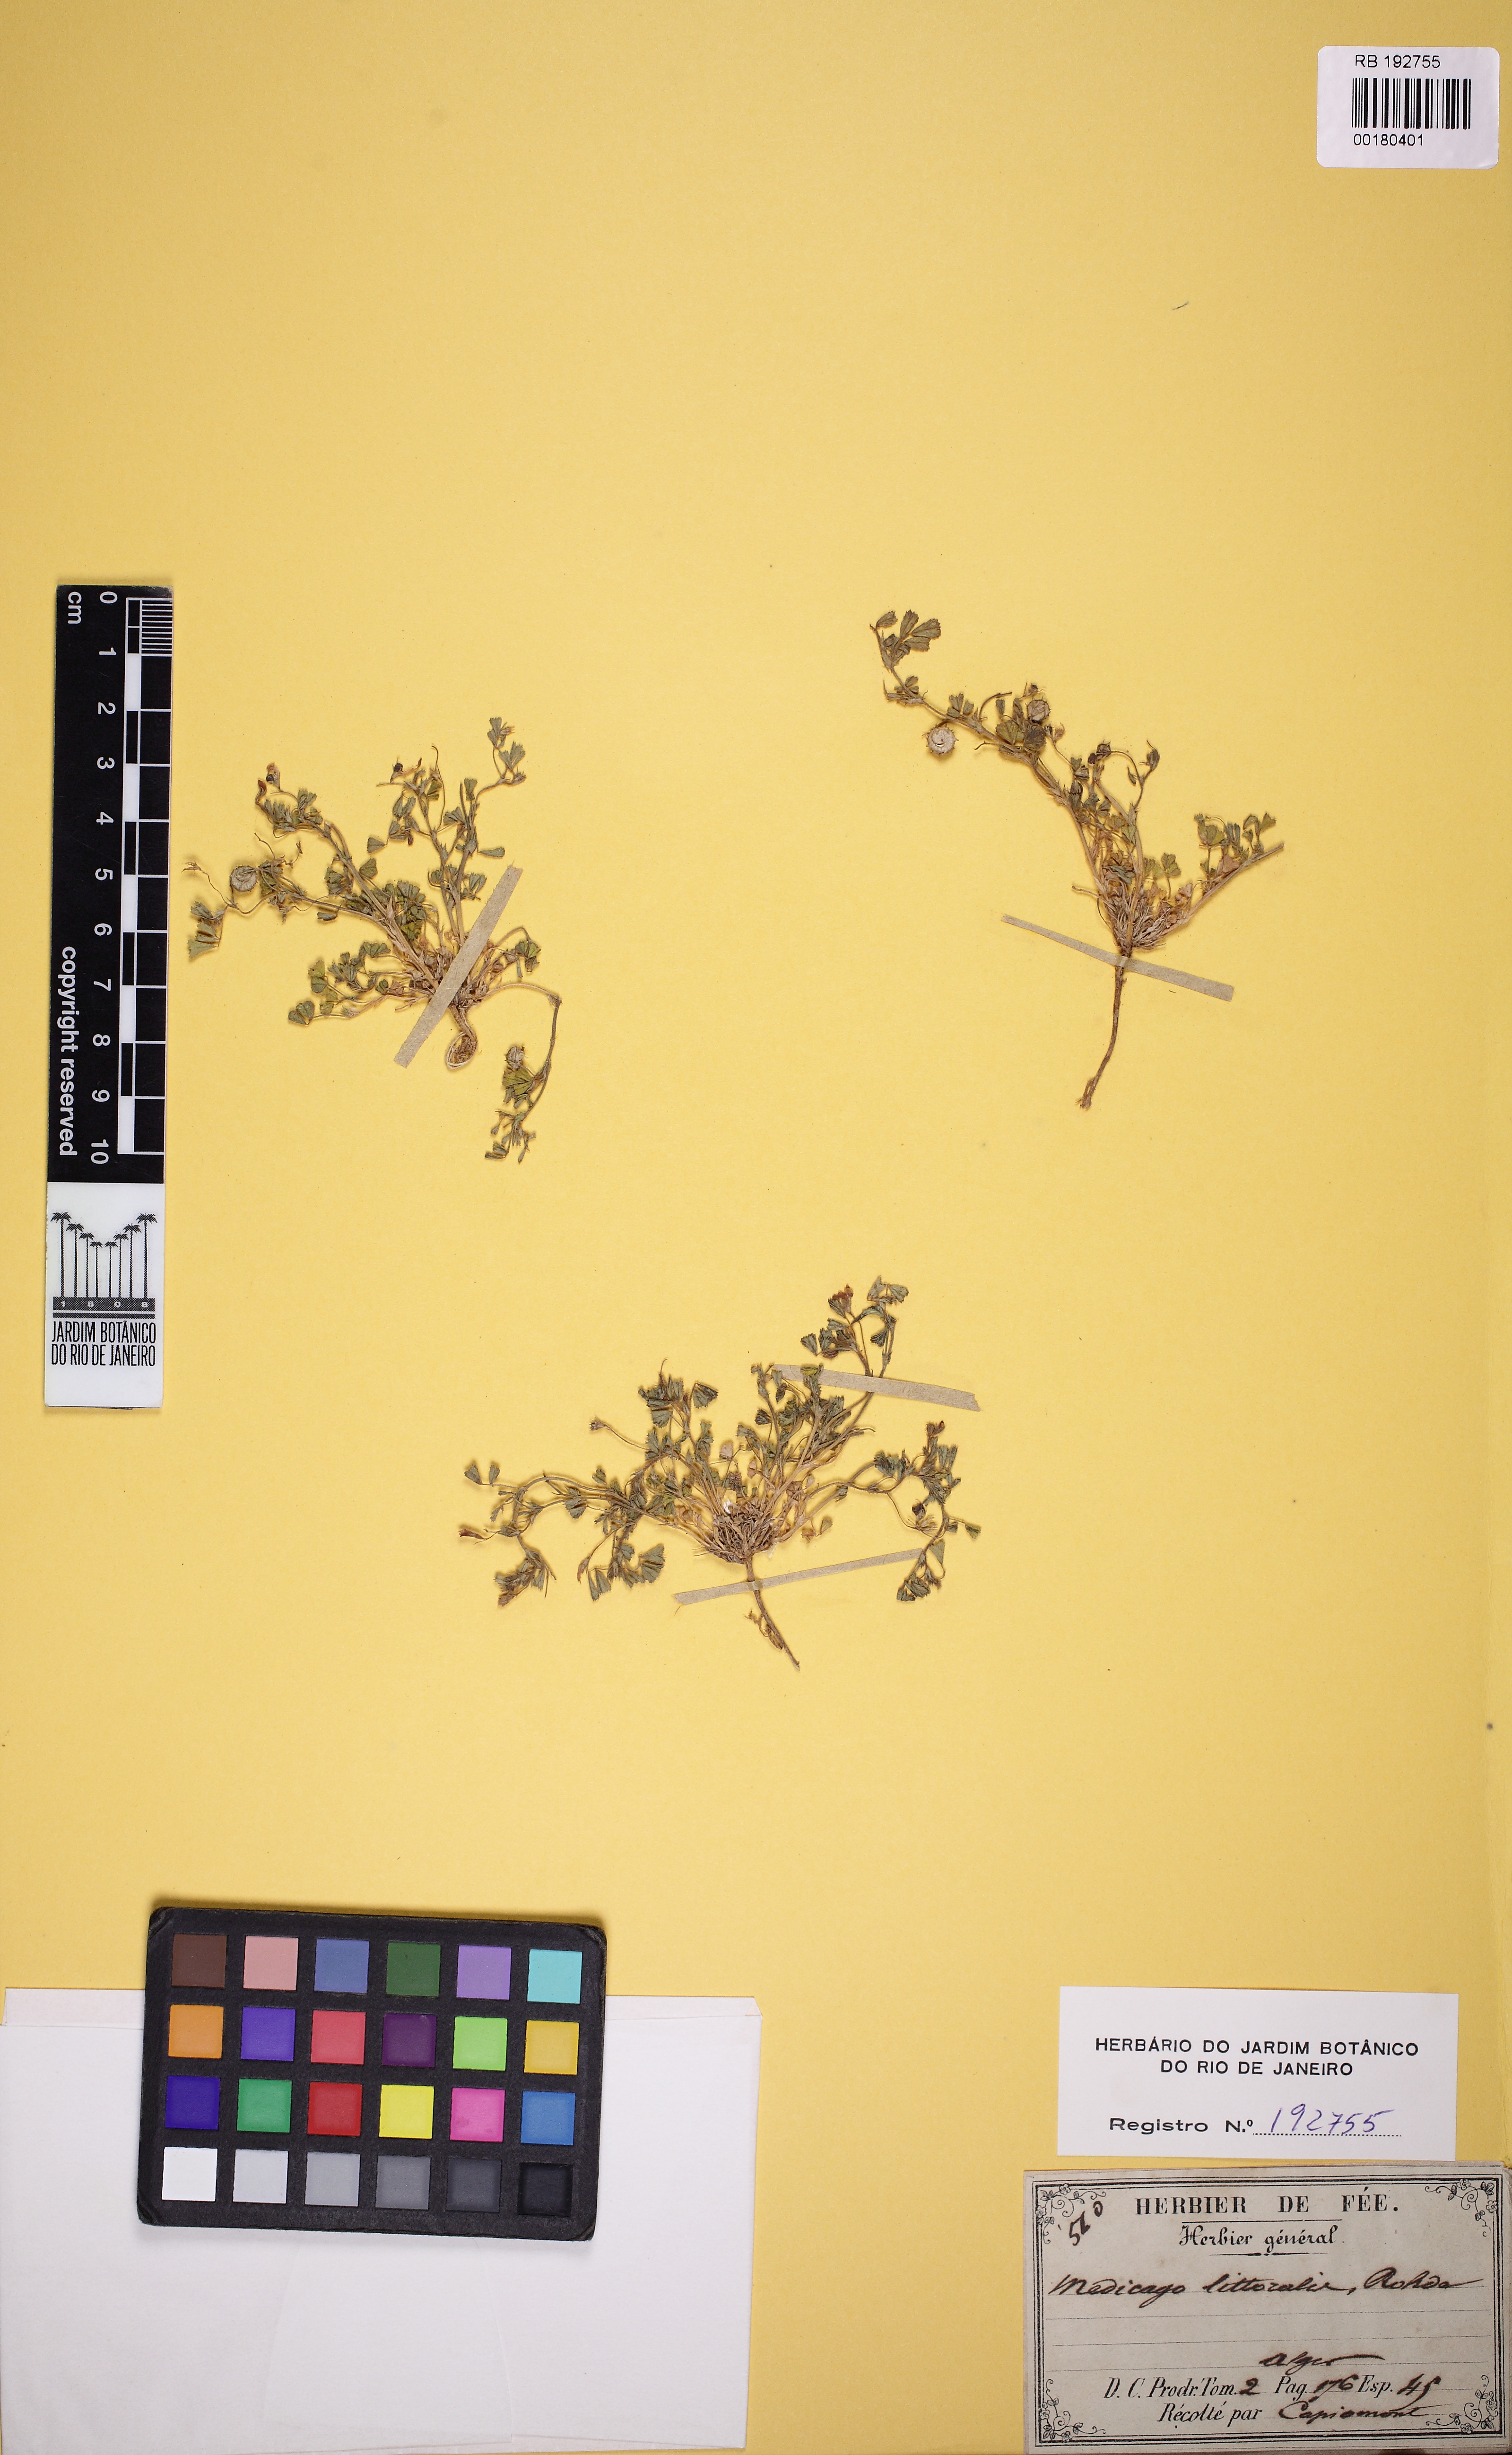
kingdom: Plantae
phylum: Tracheophyta
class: Magnoliopsida
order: Fabales
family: Fabaceae
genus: Medicago
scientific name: Medicago littoralis
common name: Shore medick
